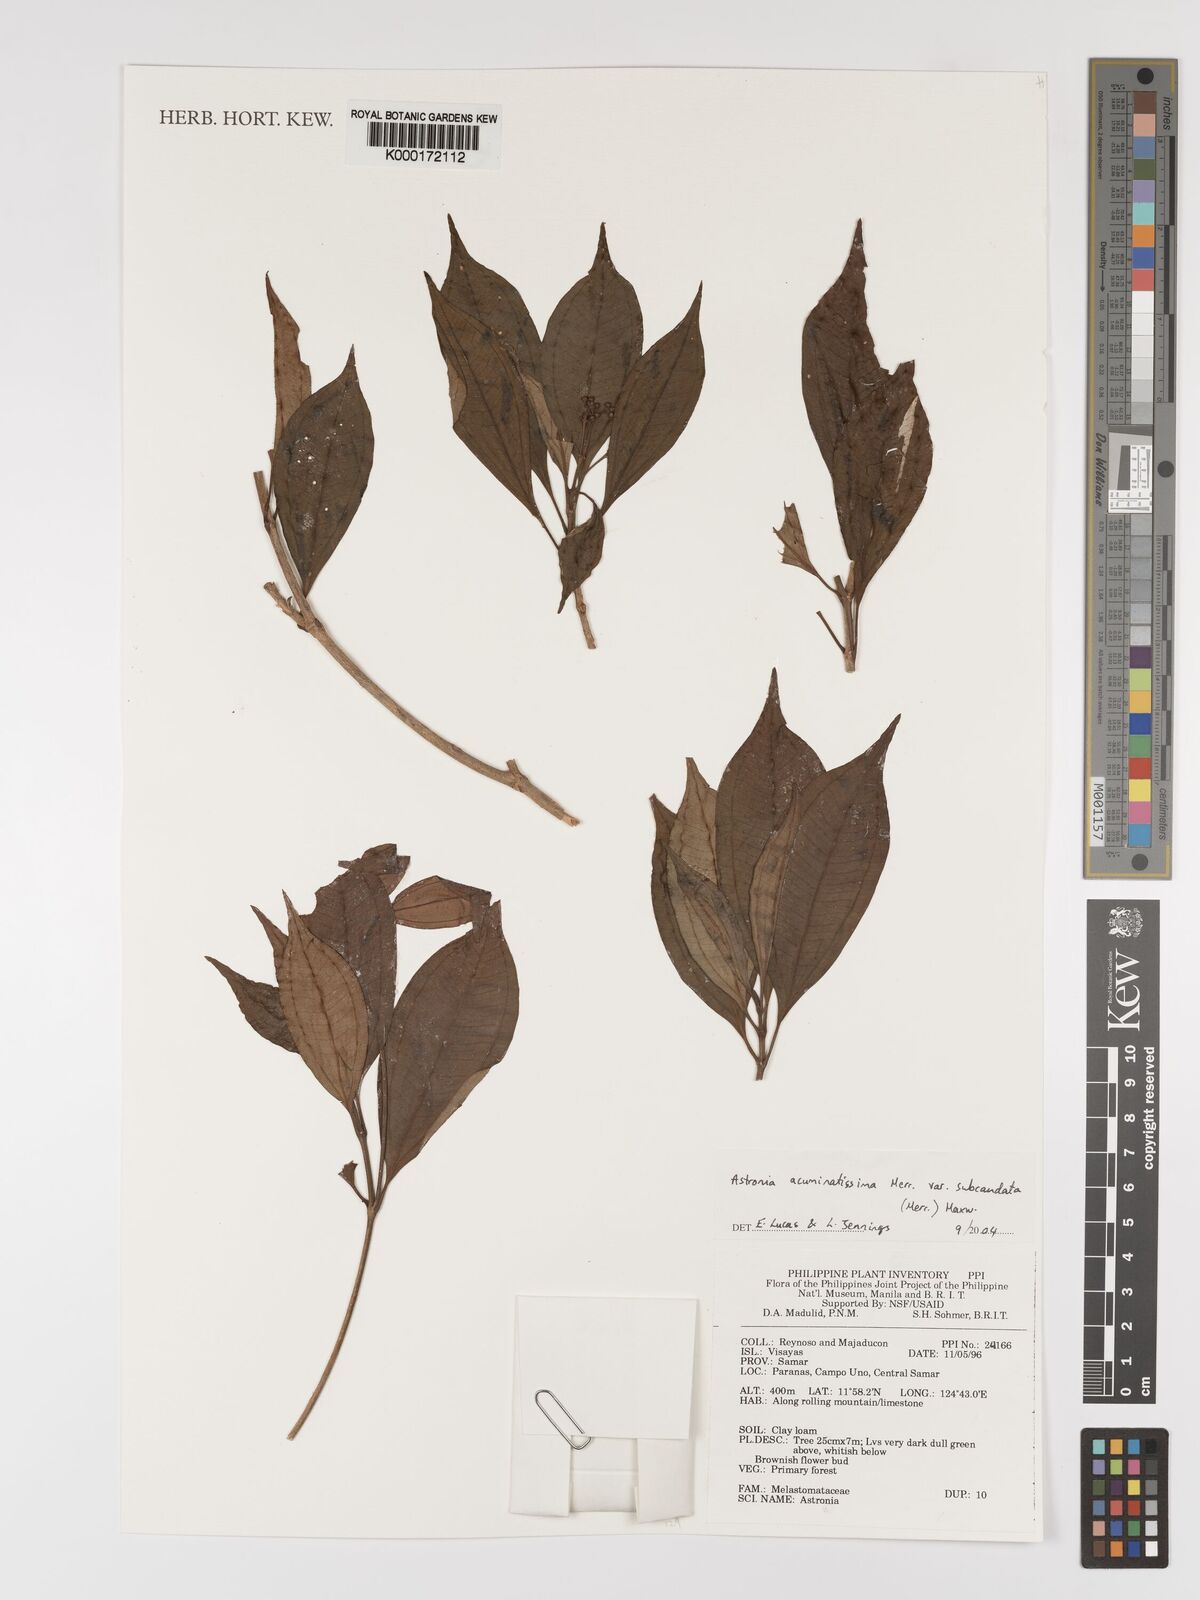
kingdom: Plantae
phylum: Tracheophyta
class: Magnoliopsida
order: Myrtales
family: Melastomataceae
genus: Astronia
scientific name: Astronia acuminatissima
